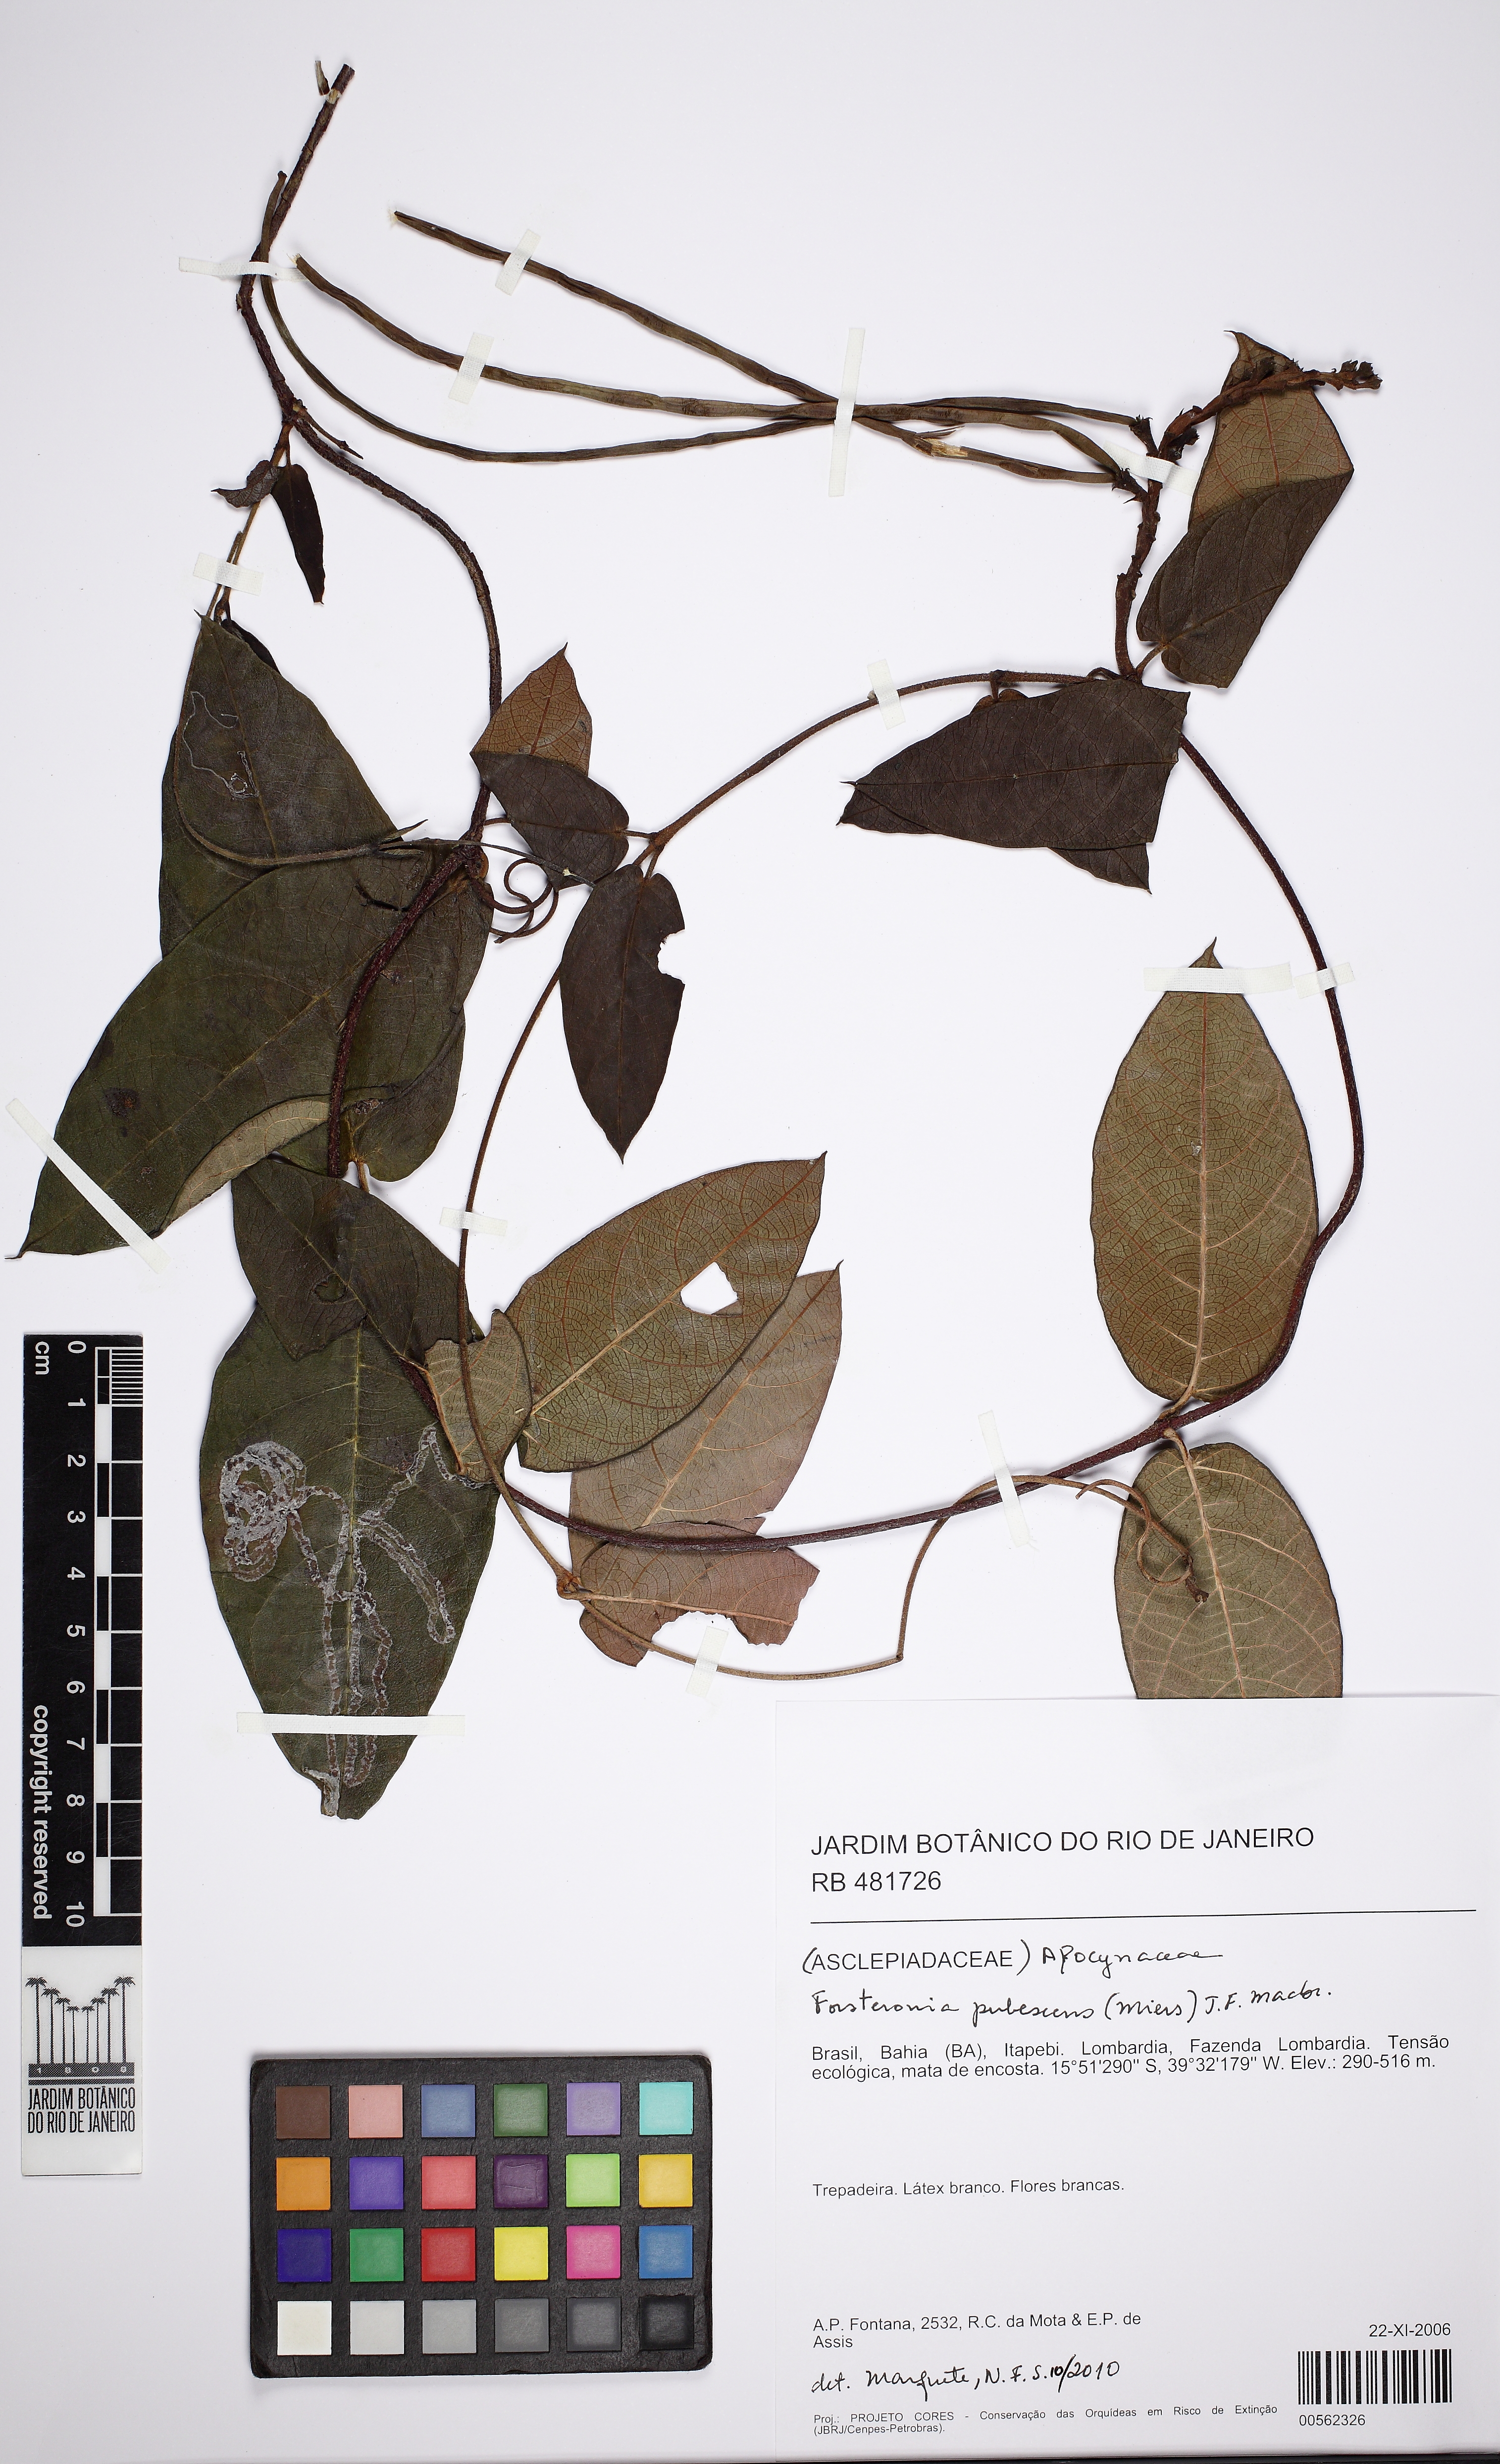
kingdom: Plantae
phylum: Tracheophyta
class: Magnoliopsida
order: Gentianales
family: Apocynaceae
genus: Forsteronia
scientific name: Forsteronia pubescens
